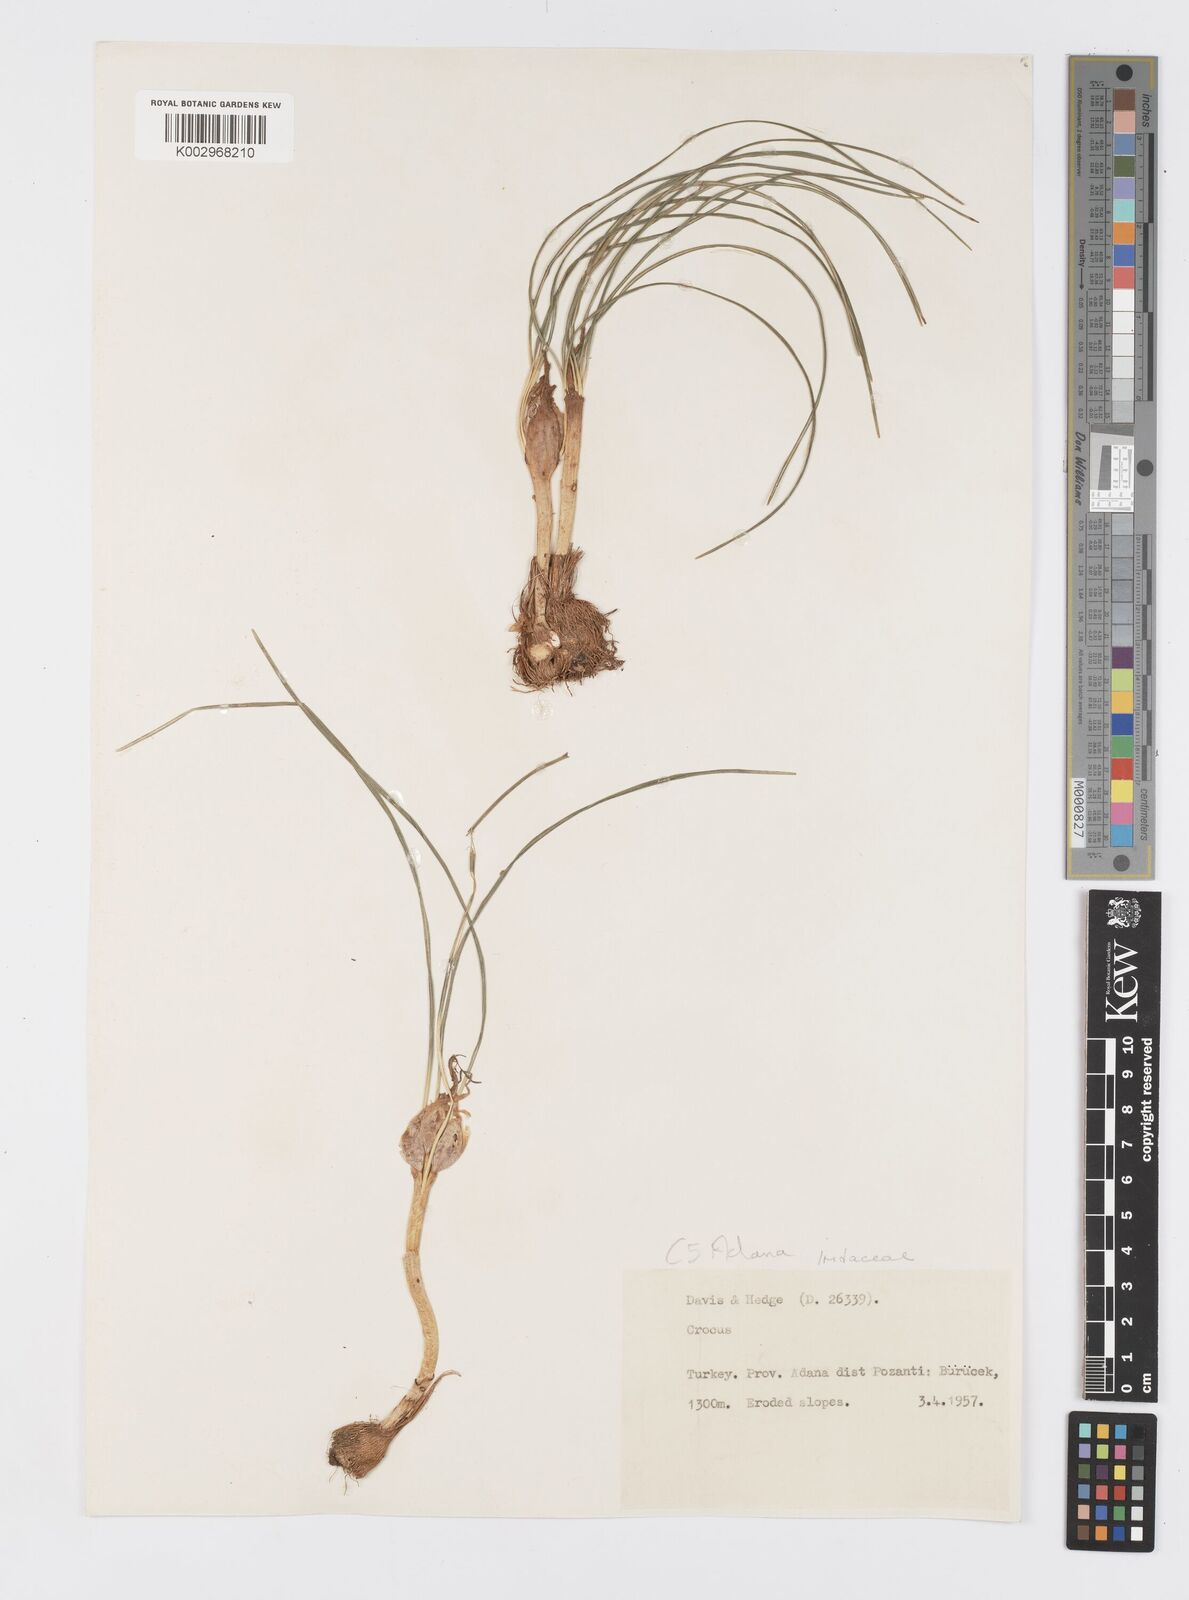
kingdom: Plantae
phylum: Tracheophyta
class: Liliopsida
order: Asparagales
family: Iridaceae
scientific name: Iridaceae
